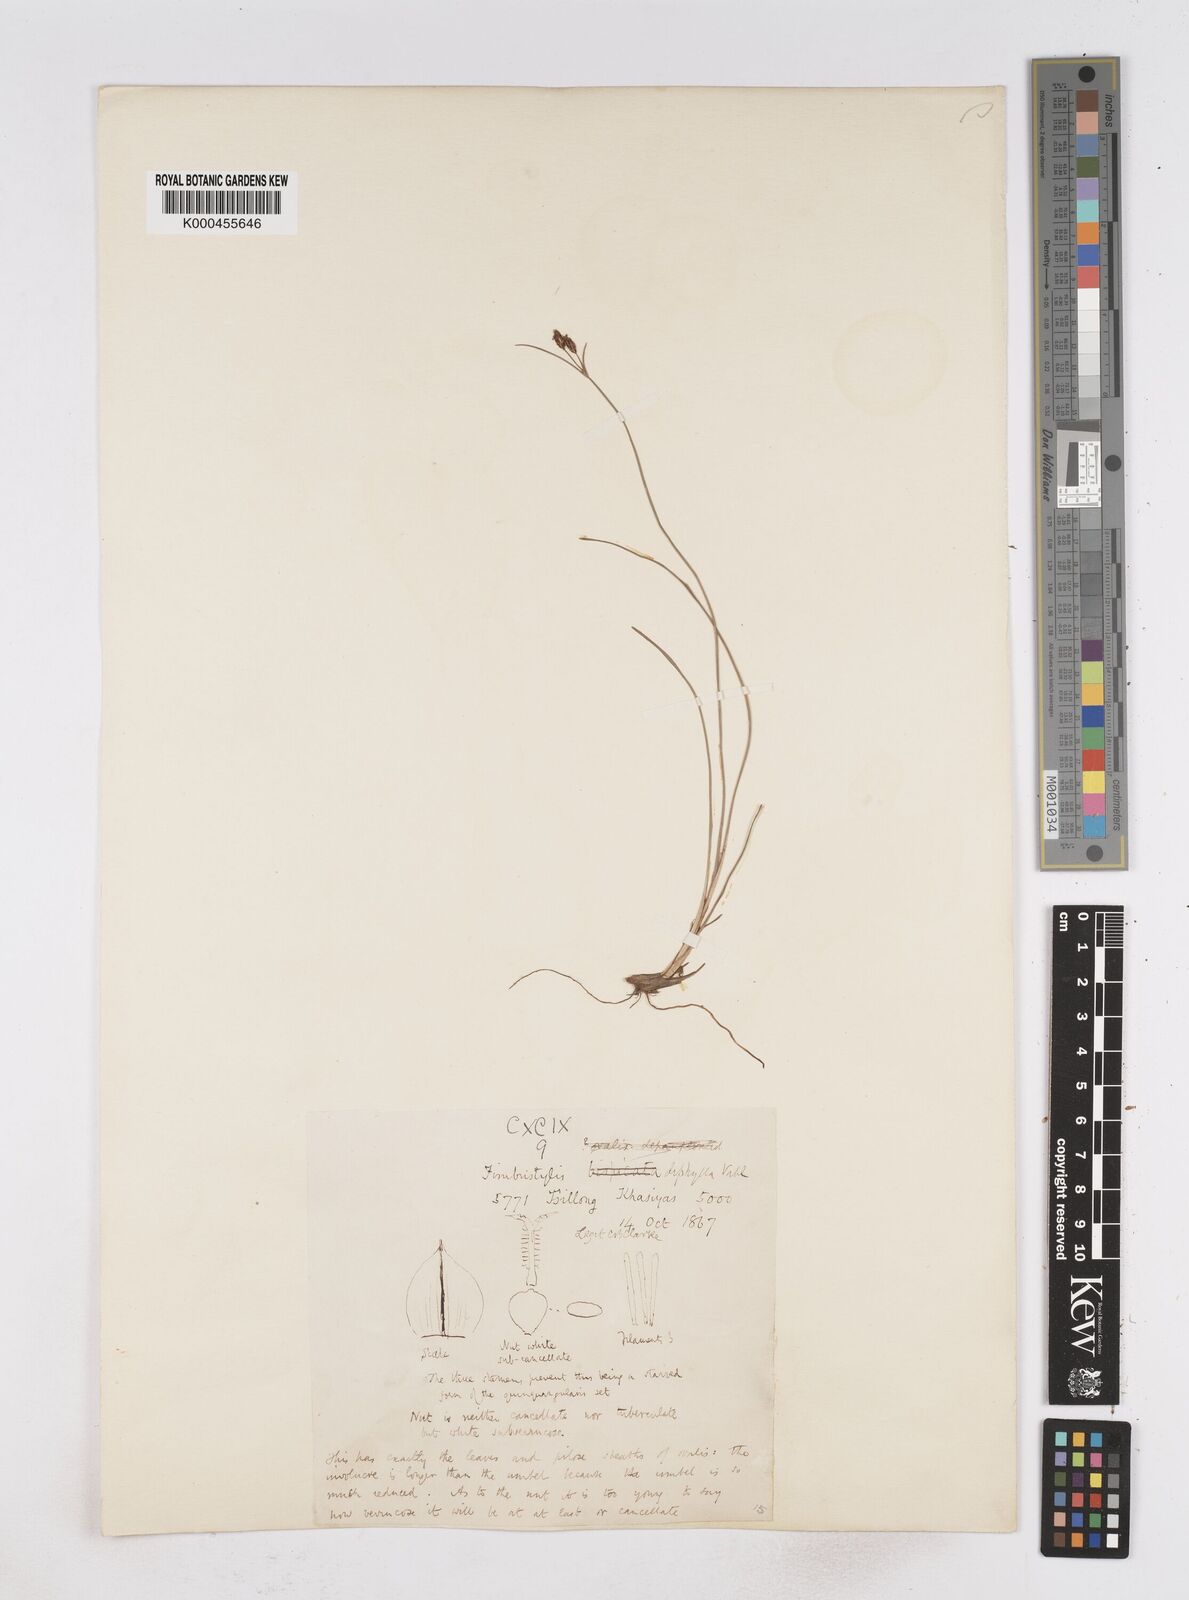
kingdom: Plantae
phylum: Tracheophyta
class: Liliopsida
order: Poales
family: Cyperaceae
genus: Fimbristylis
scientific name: Fimbristylis dichotoma
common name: Forked fimbry
